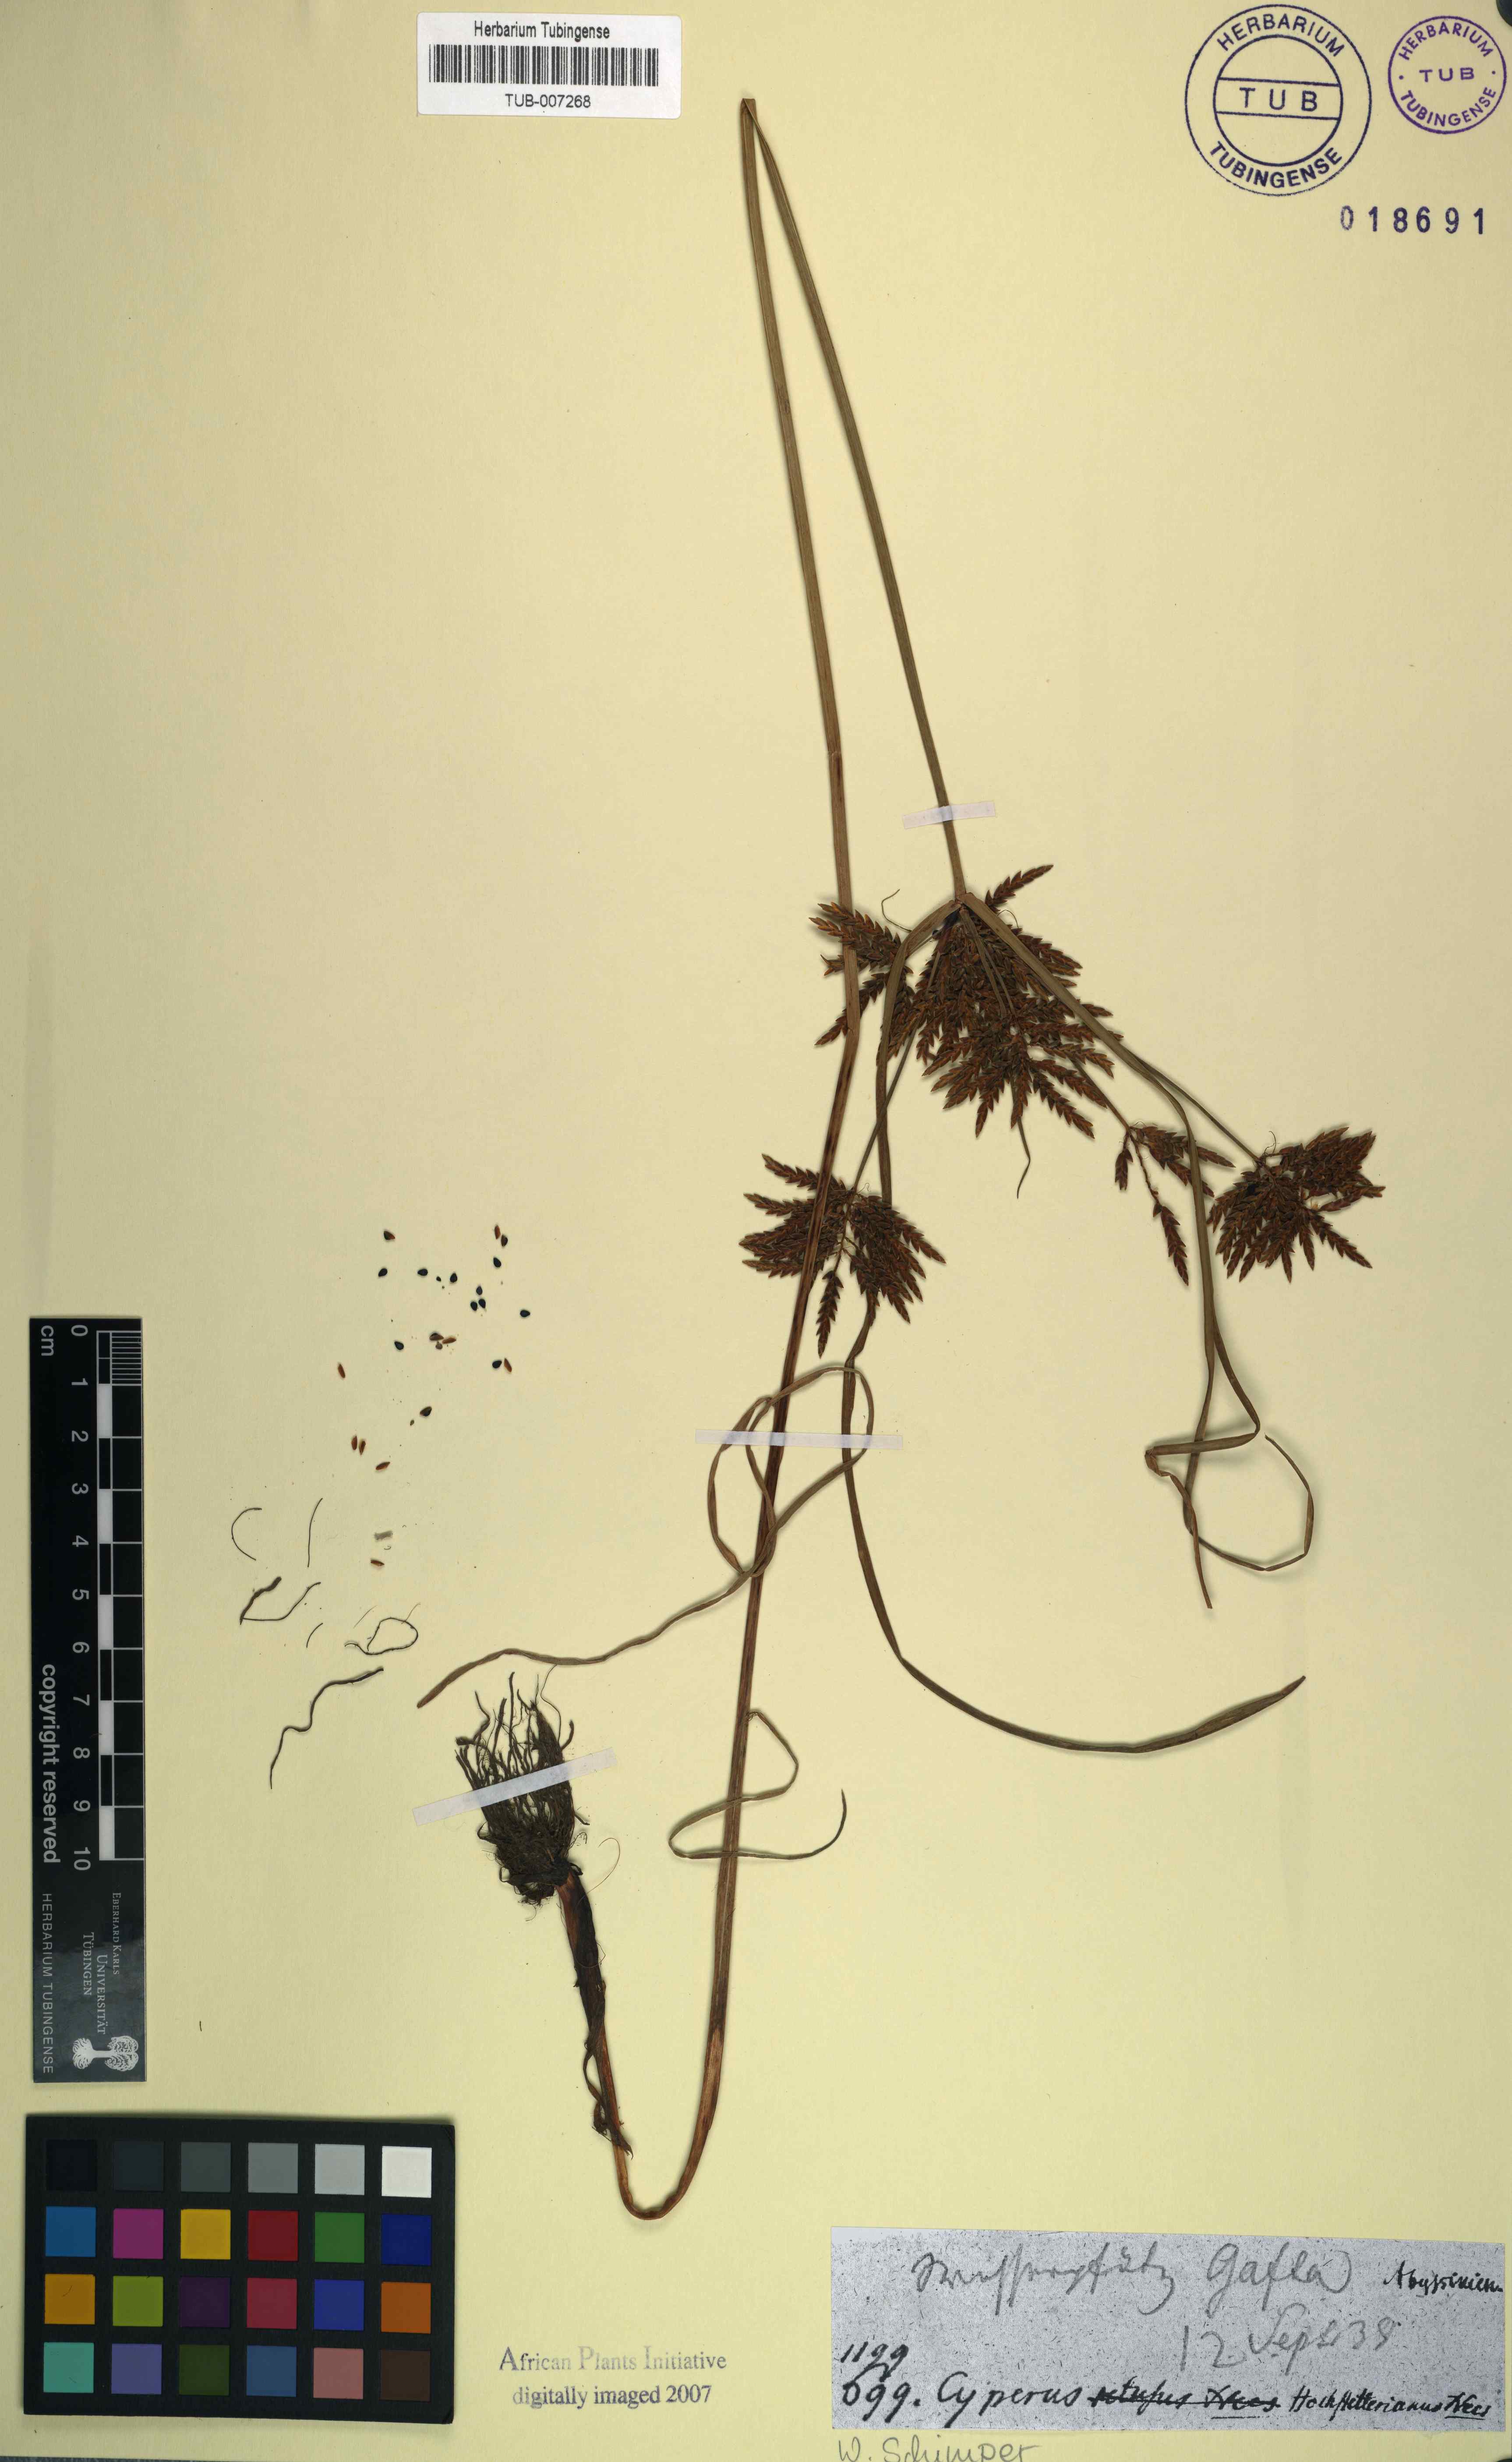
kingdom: Plantae
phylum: Tracheophyta
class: Liliopsida
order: Poales
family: Cyperaceae
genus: Cyperus
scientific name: Cyperus macrostachyos
